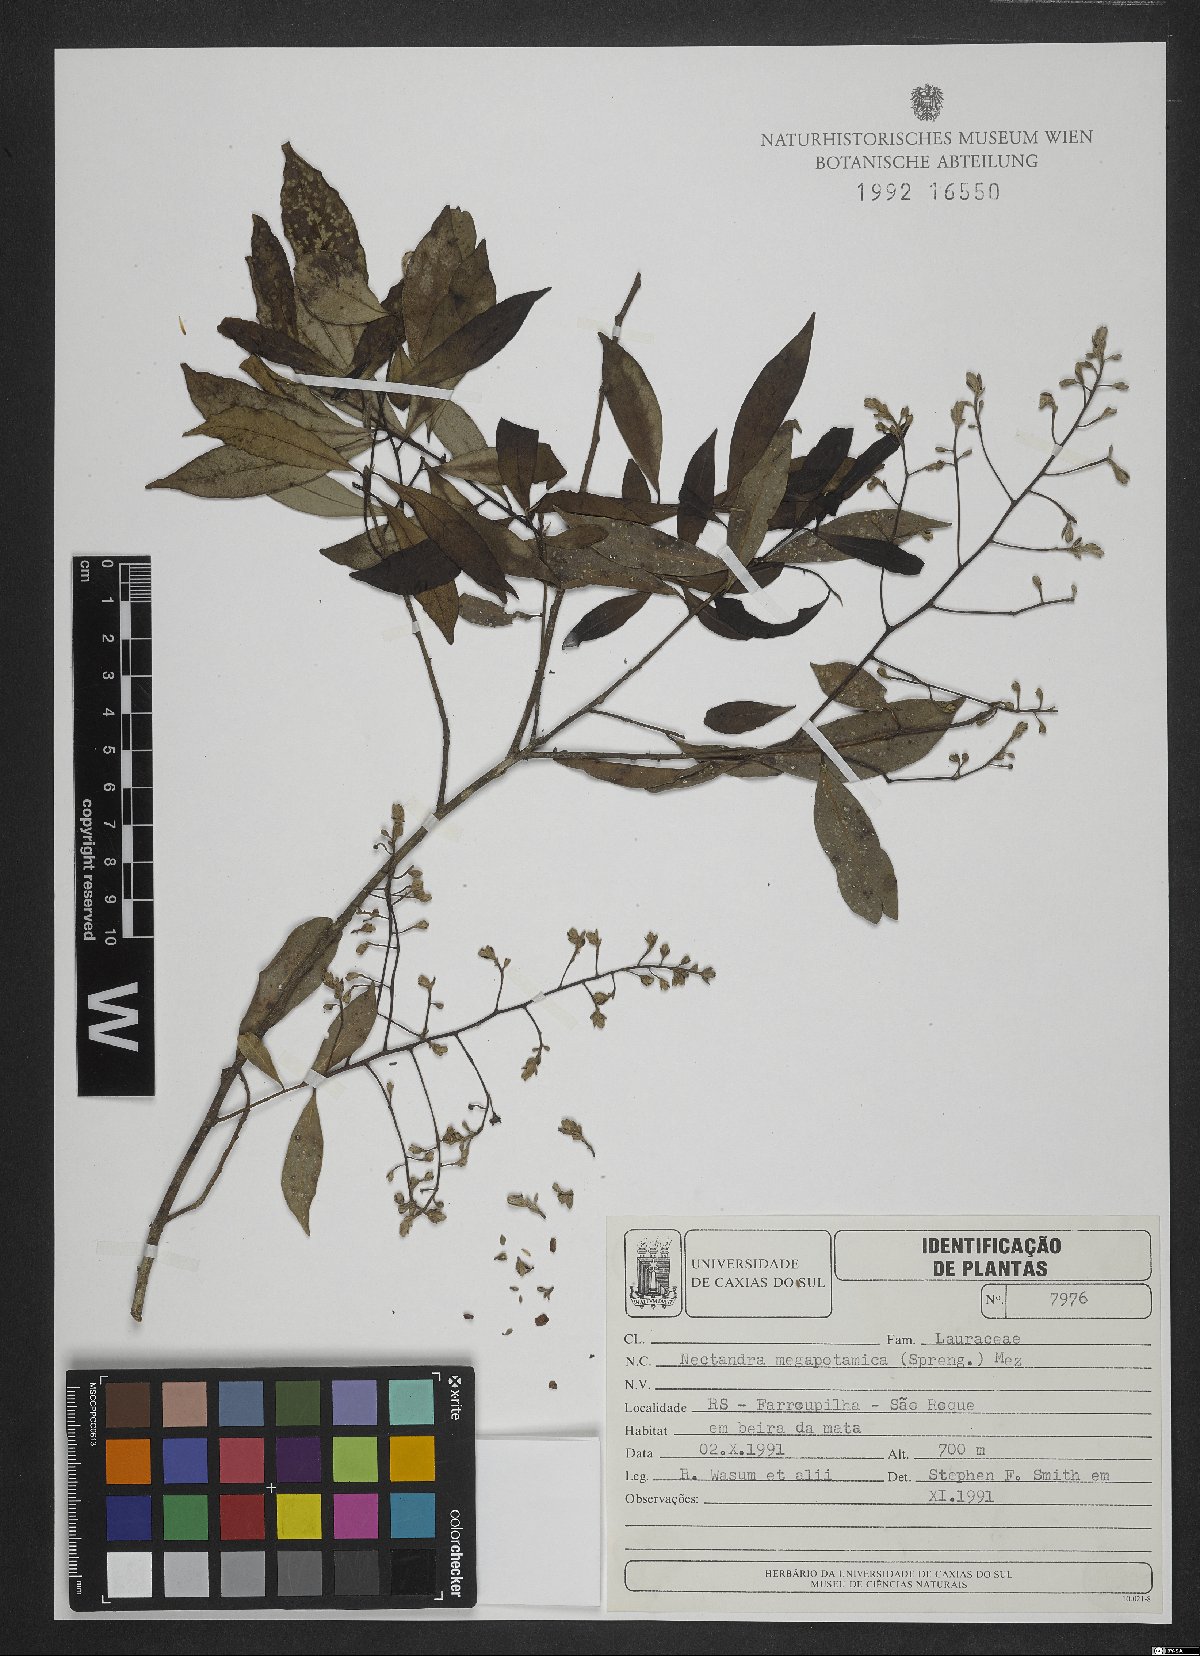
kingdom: Plantae
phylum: Tracheophyta
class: Magnoliopsida
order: Laurales
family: Lauraceae
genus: Nectandra
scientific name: Nectandra megapotamica
